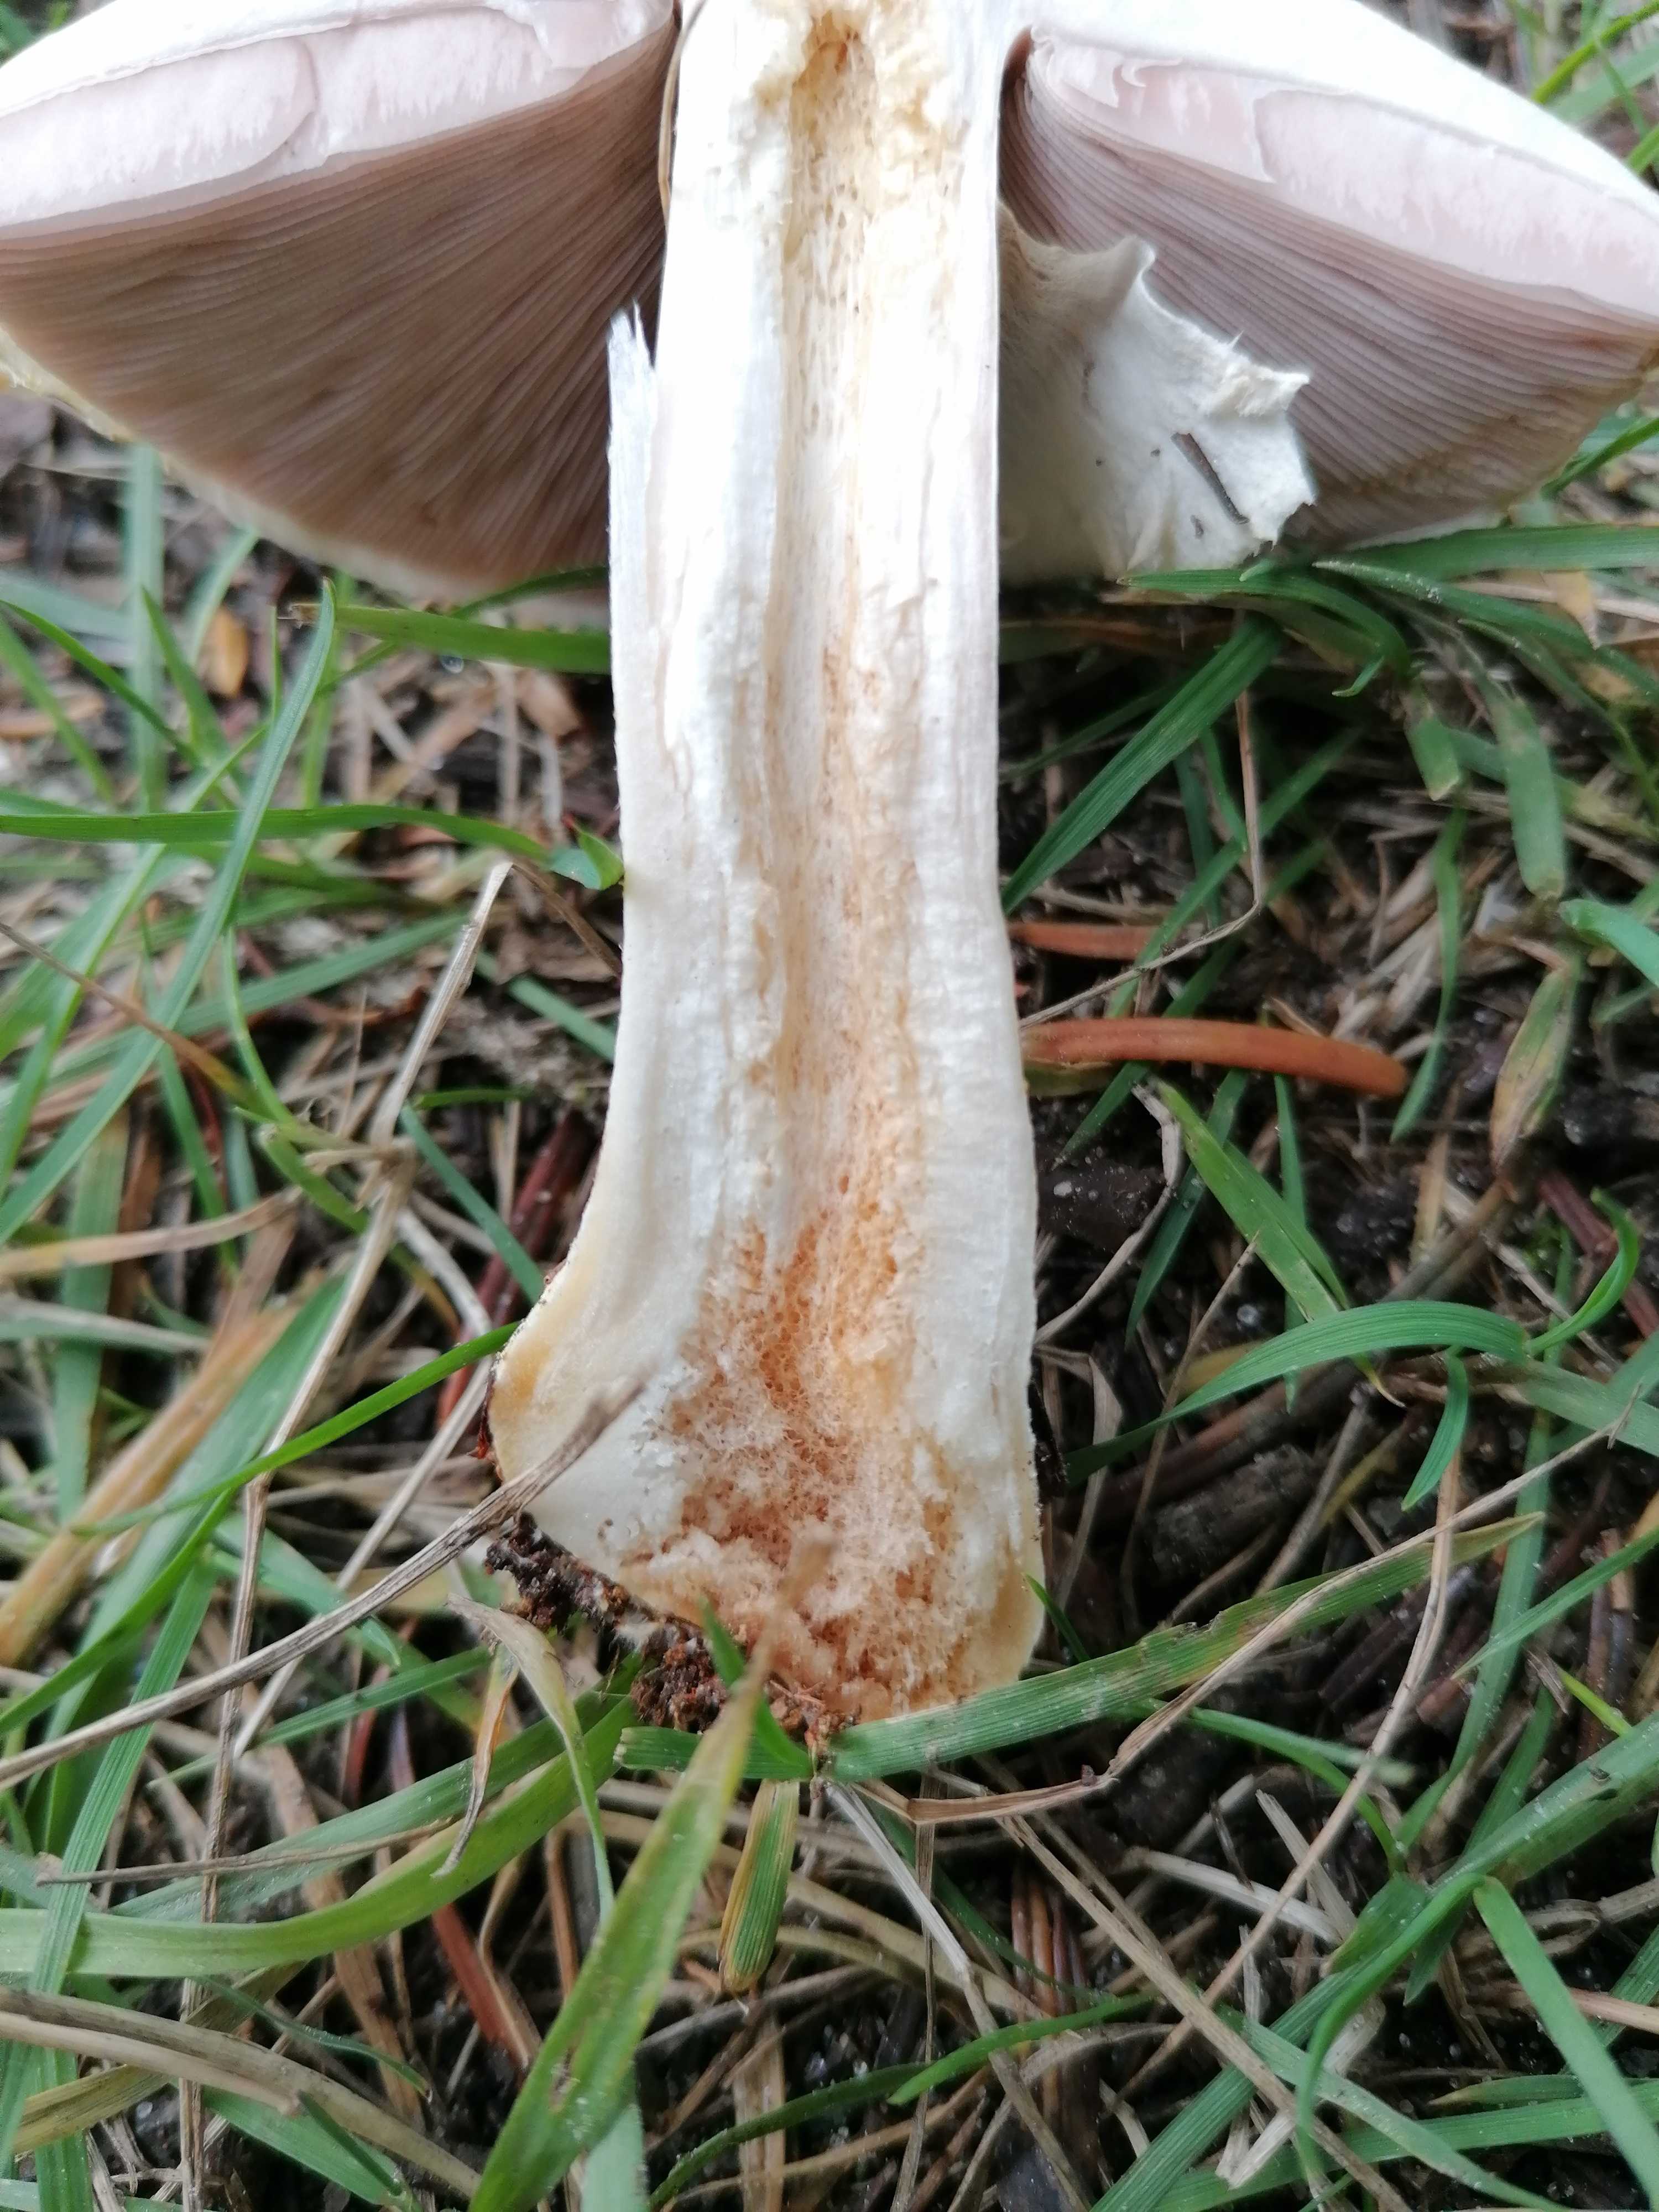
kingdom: Fungi
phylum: Basidiomycota
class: Agaricomycetes
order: Agaricales
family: Agaricaceae
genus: Agaricus
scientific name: Agaricus sylvicola
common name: skiveknoldet champignon
